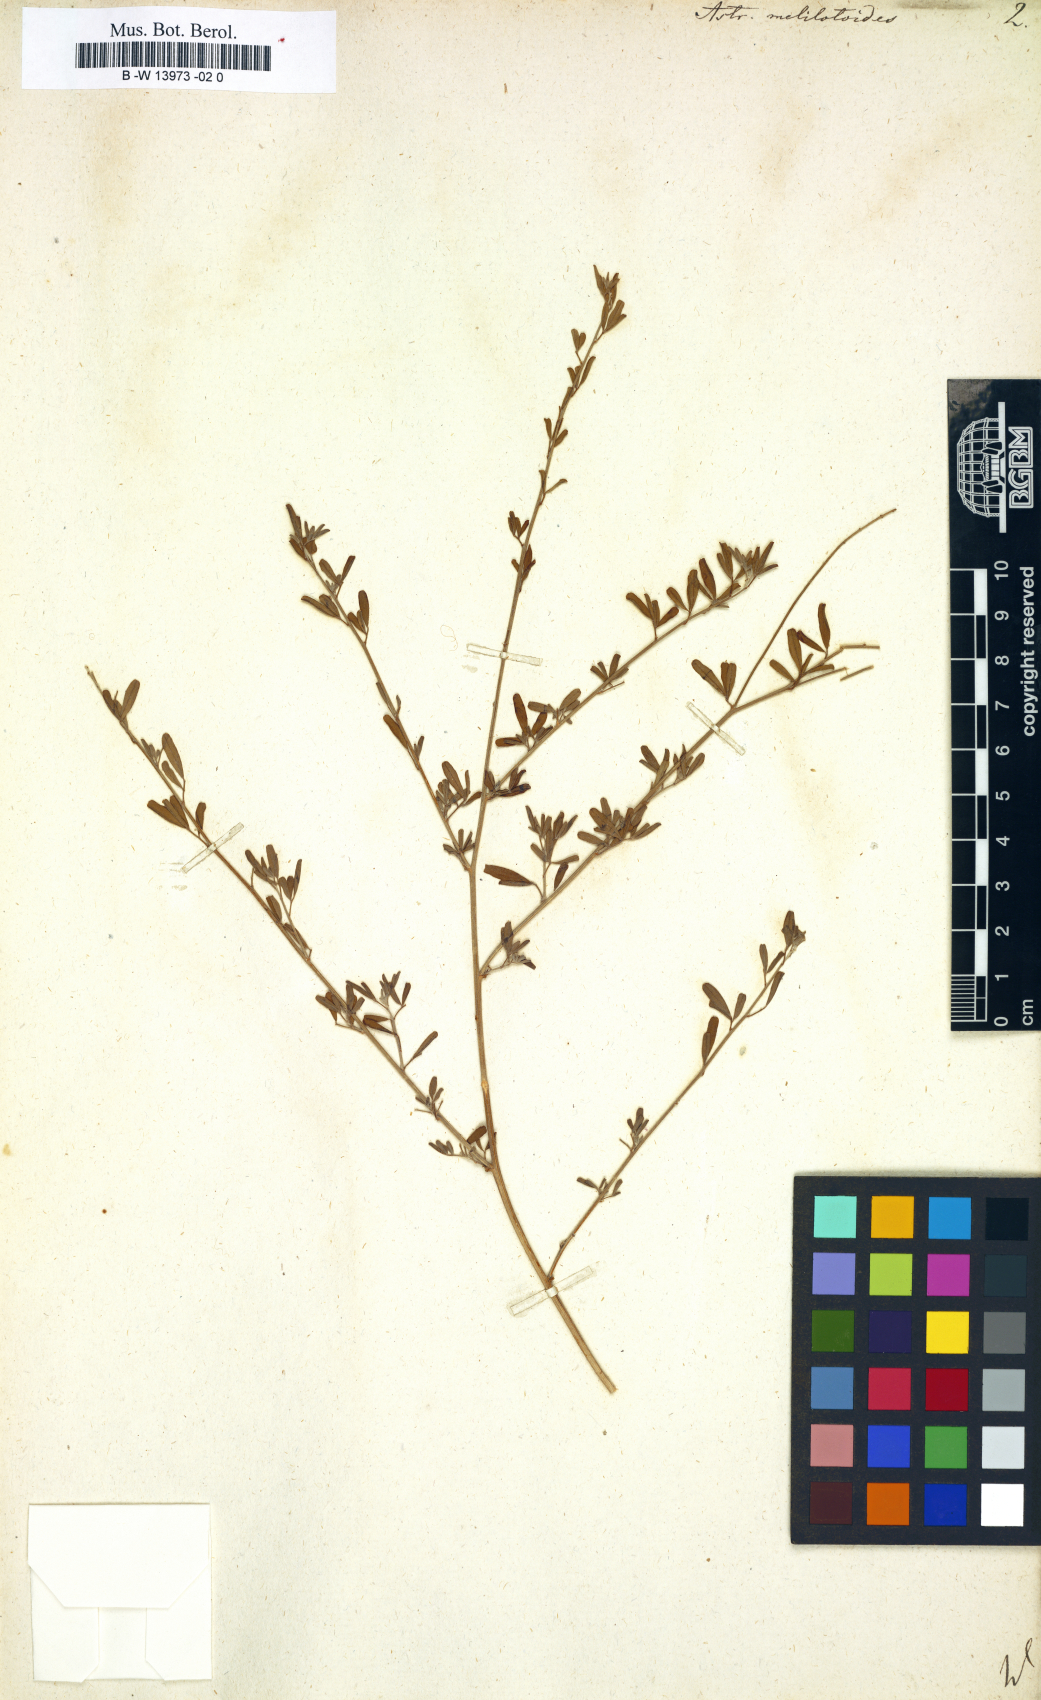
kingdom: Plantae
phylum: Tracheophyta
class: Magnoliopsida
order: Fabales
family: Fabaceae
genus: Astragalus
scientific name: Astragalus melilotoides
